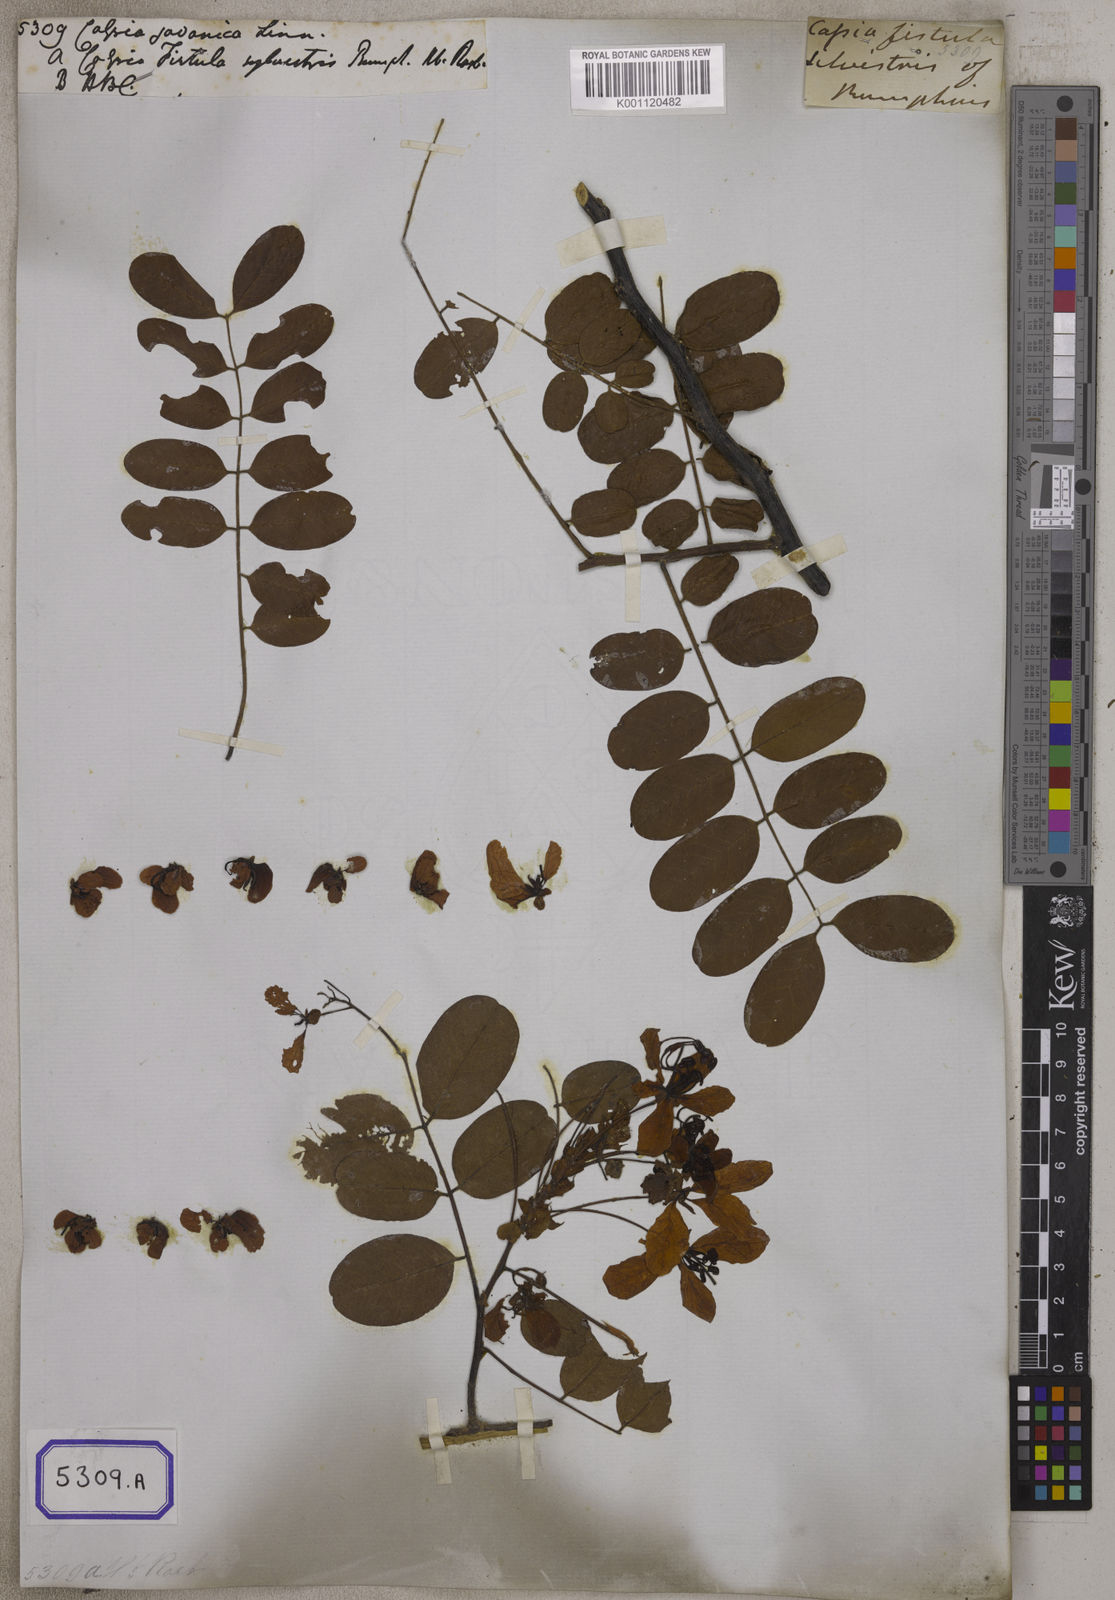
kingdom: Plantae
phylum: Tracheophyta
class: Magnoliopsida
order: Fabales
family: Fabaceae
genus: Cassia
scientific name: Cassia javanica
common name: Apple blossom
